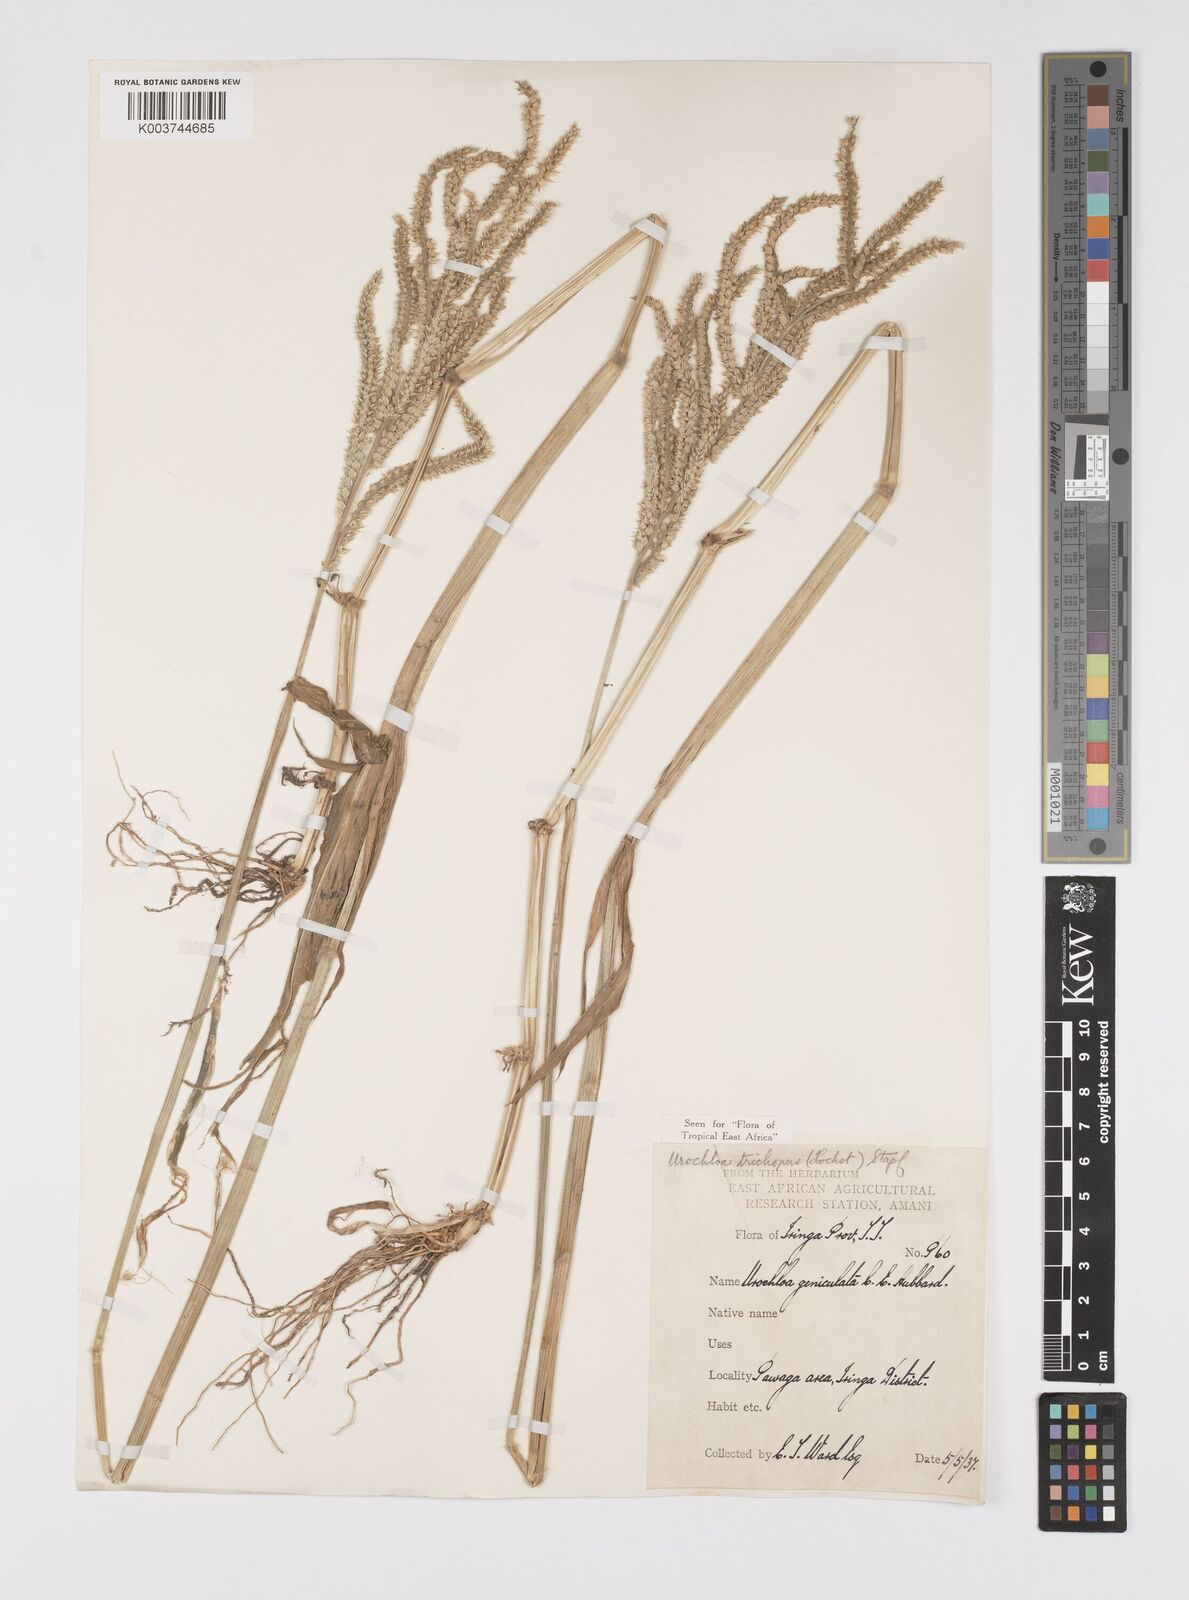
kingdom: Plantae
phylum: Tracheophyta
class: Liliopsida
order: Poales
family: Poaceae
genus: Urochloa
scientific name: Urochloa trichopus
